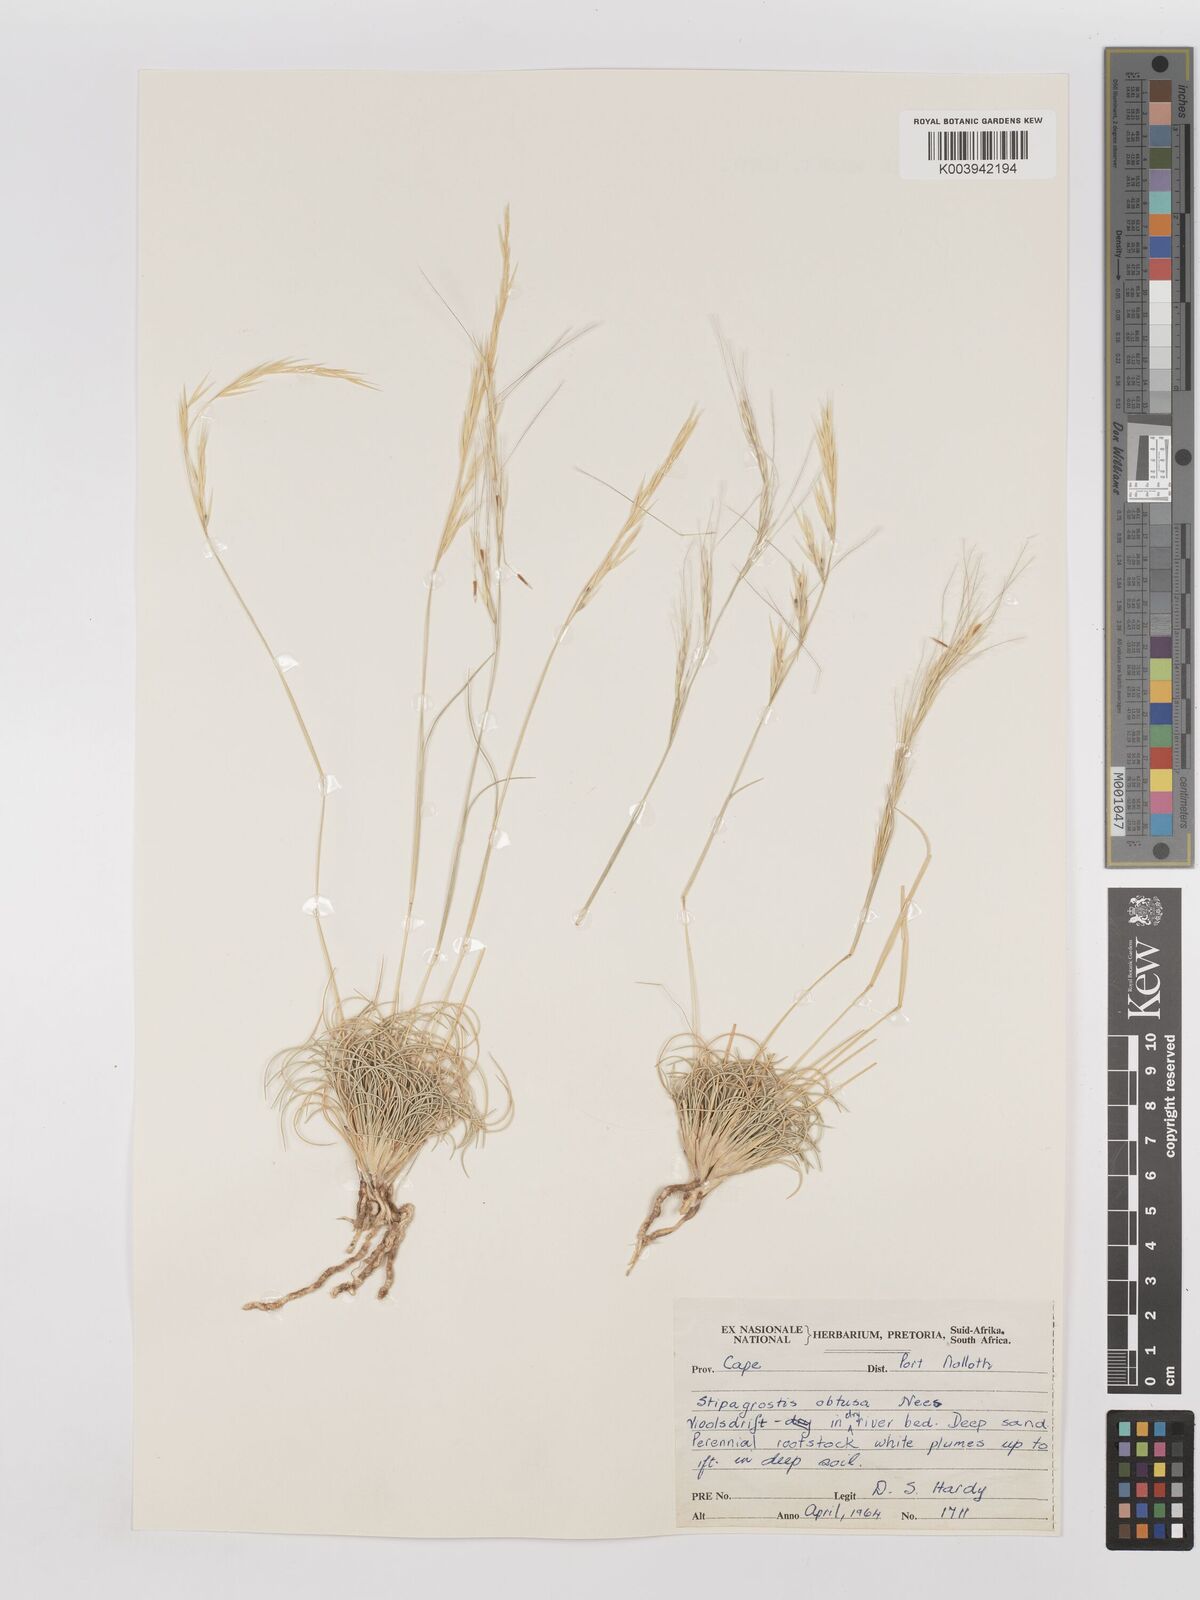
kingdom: Plantae
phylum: Tracheophyta
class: Liliopsida
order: Poales
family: Poaceae
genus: Stipagrostis
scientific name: Stipagrostis obtusa
